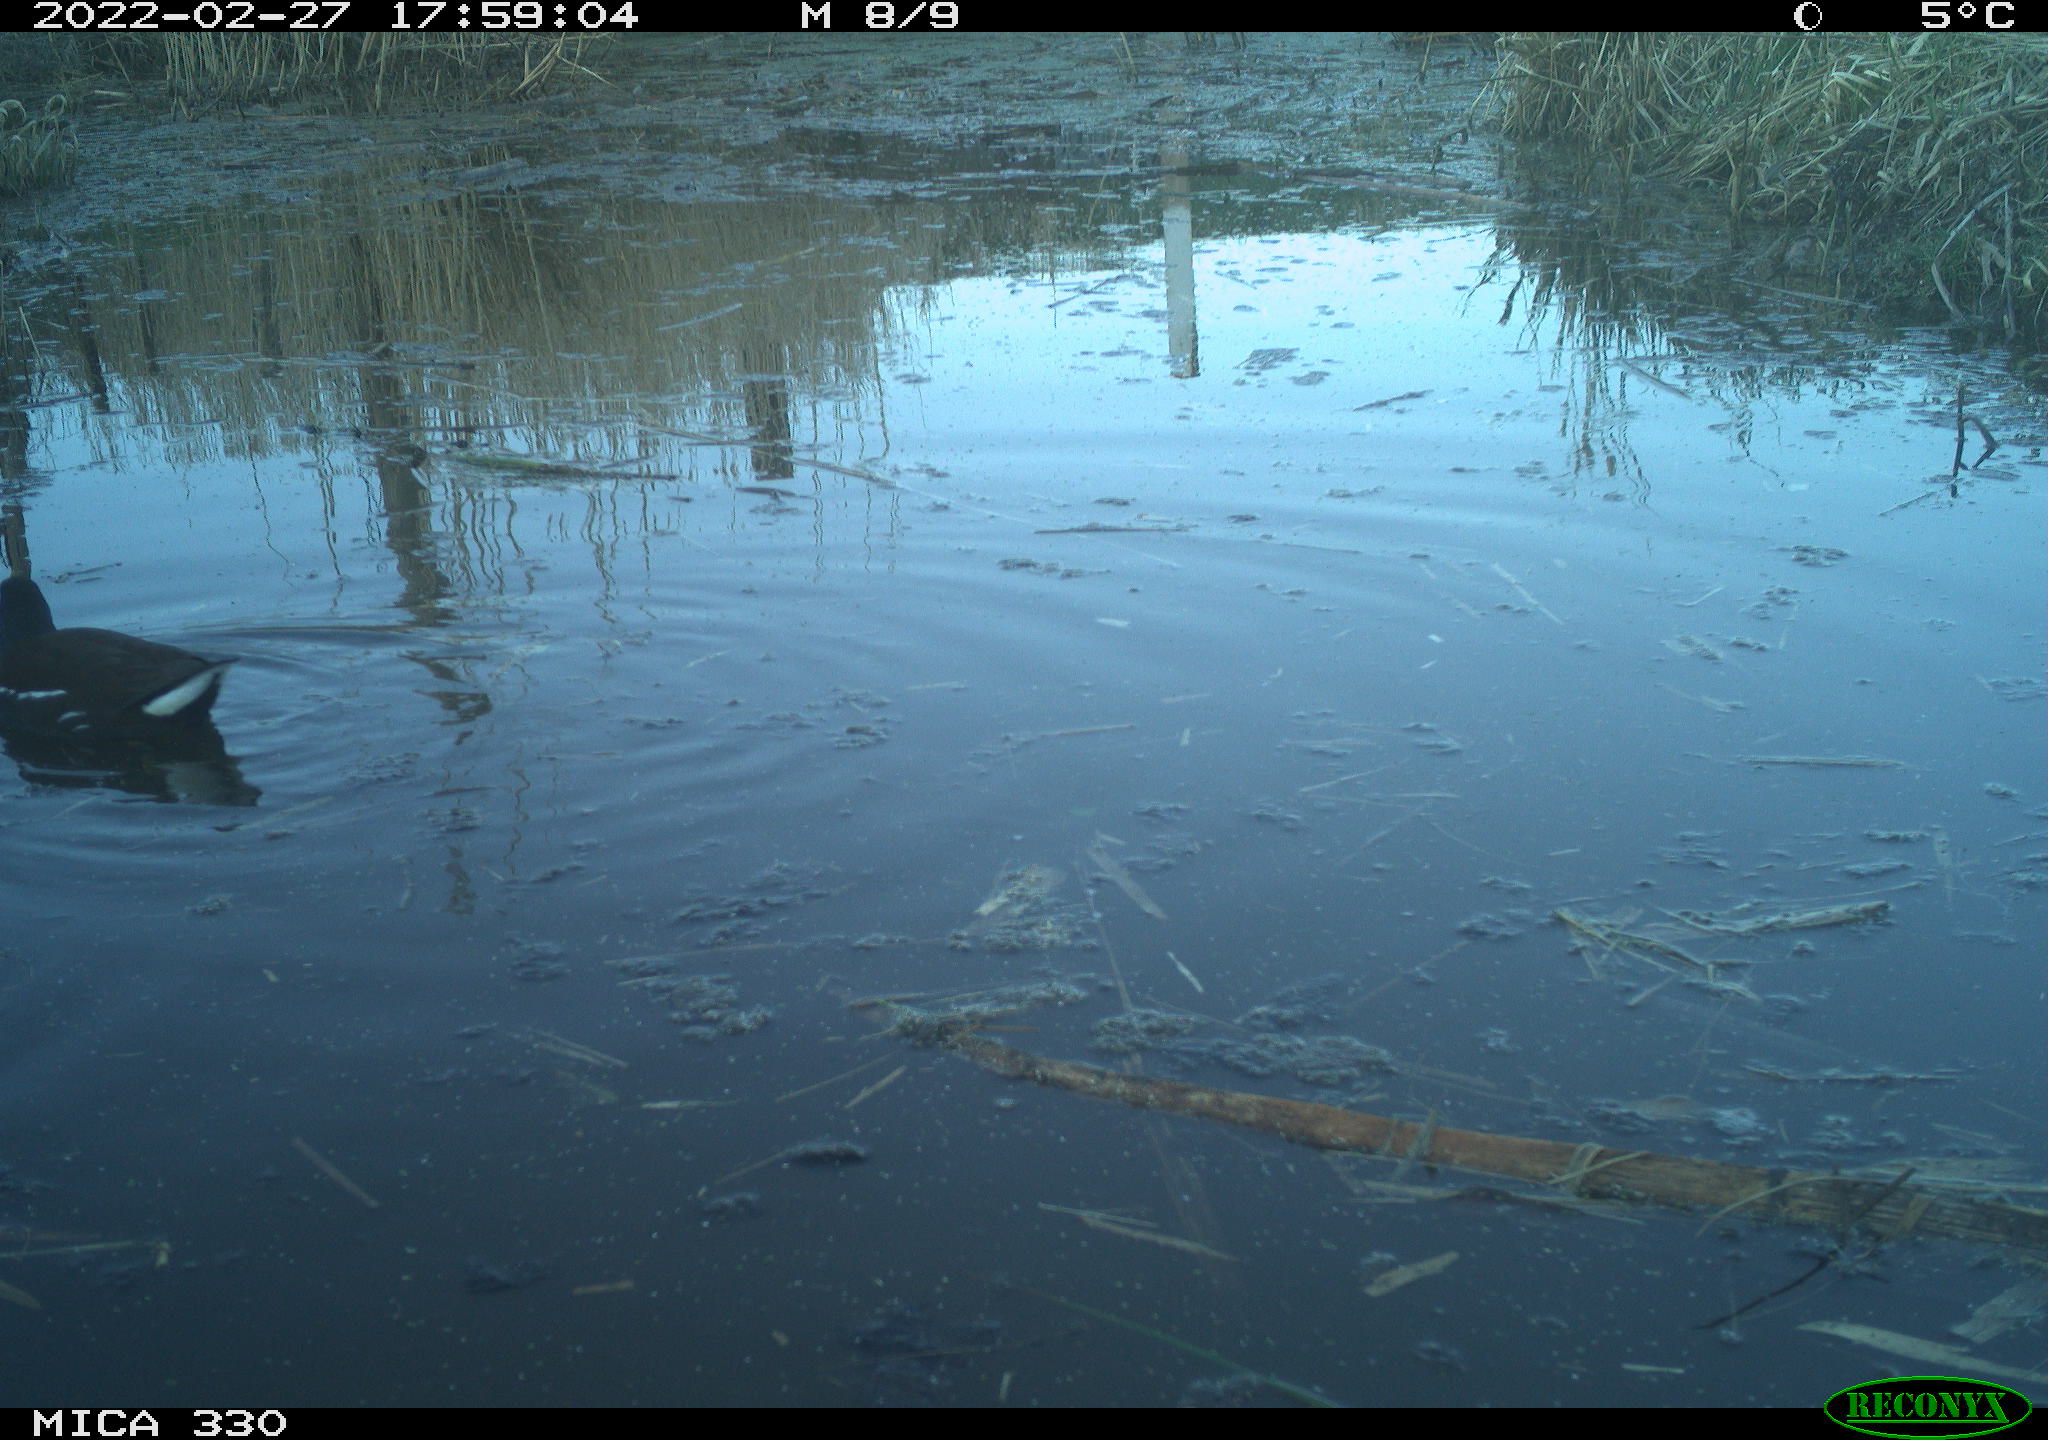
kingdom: Animalia
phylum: Chordata
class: Aves
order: Gruiformes
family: Rallidae
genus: Gallinula
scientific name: Gallinula chloropus
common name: Common moorhen
